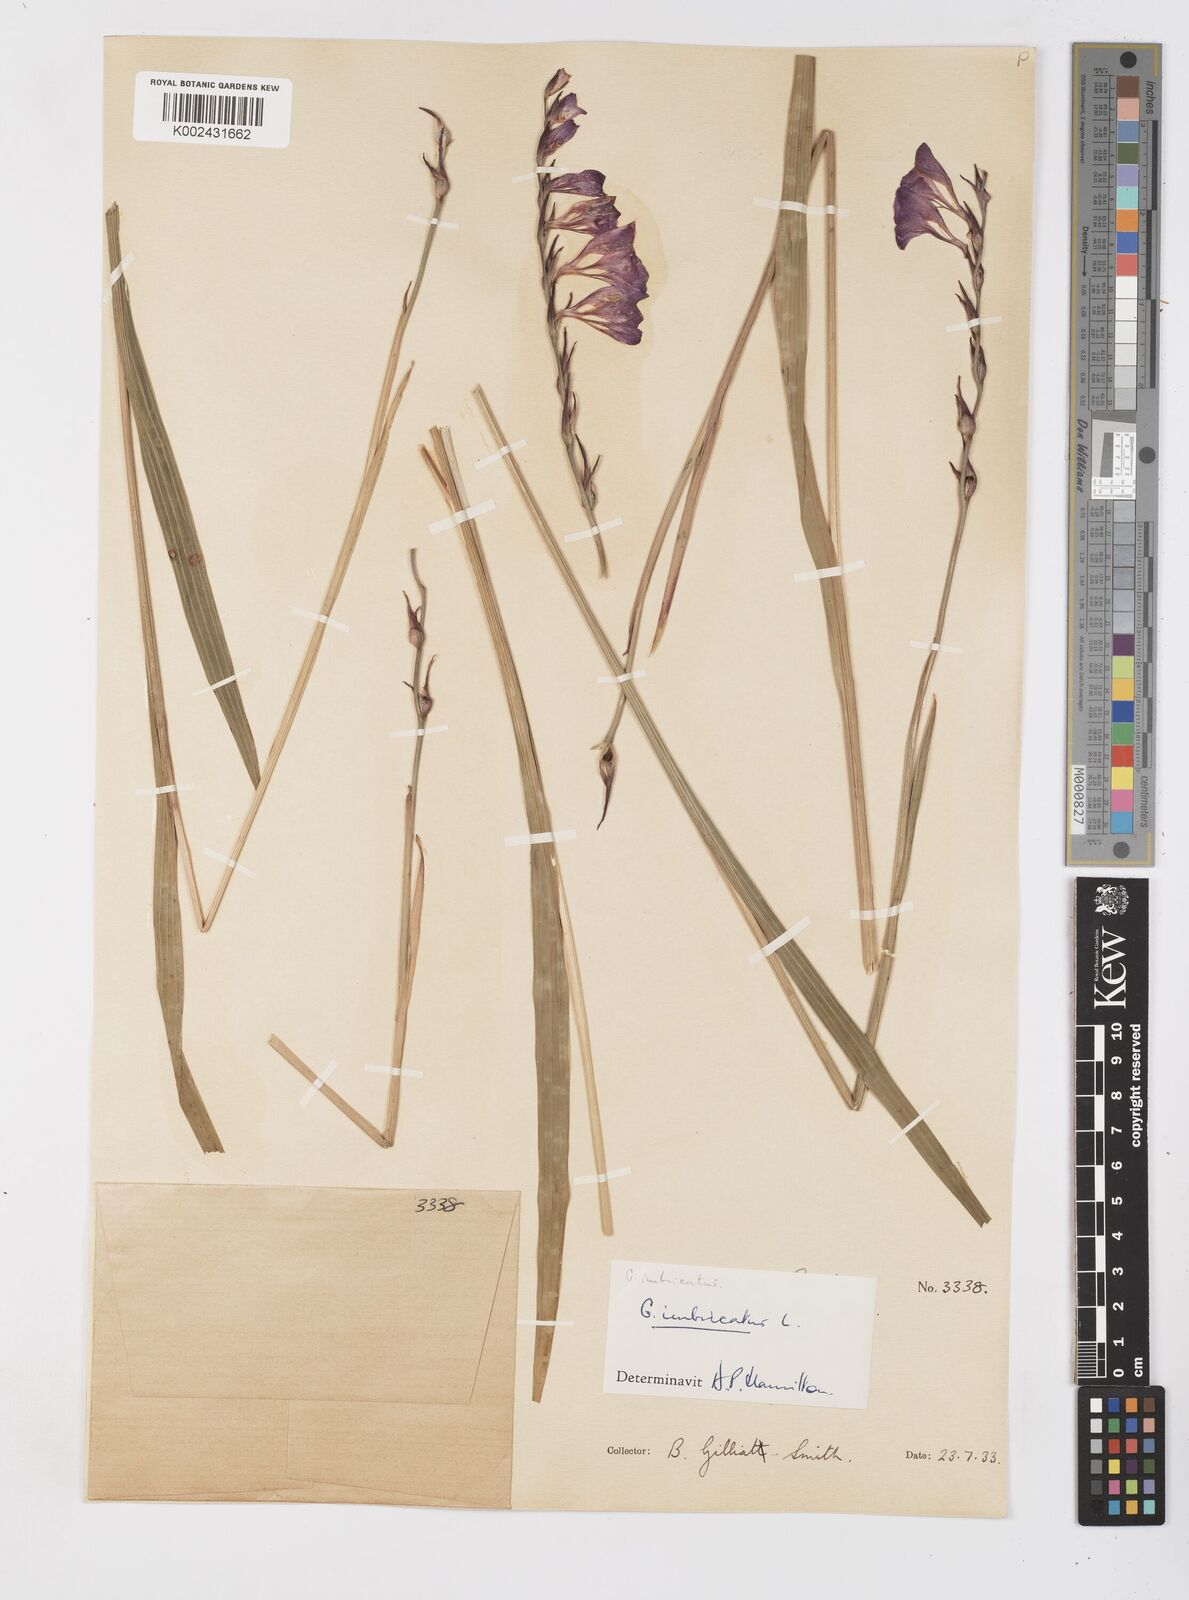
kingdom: Plantae
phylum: Tracheophyta
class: Liliopsida
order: Asparagales
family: Iridaceae
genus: Gladiolus
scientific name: Gladiolus imbricatus
